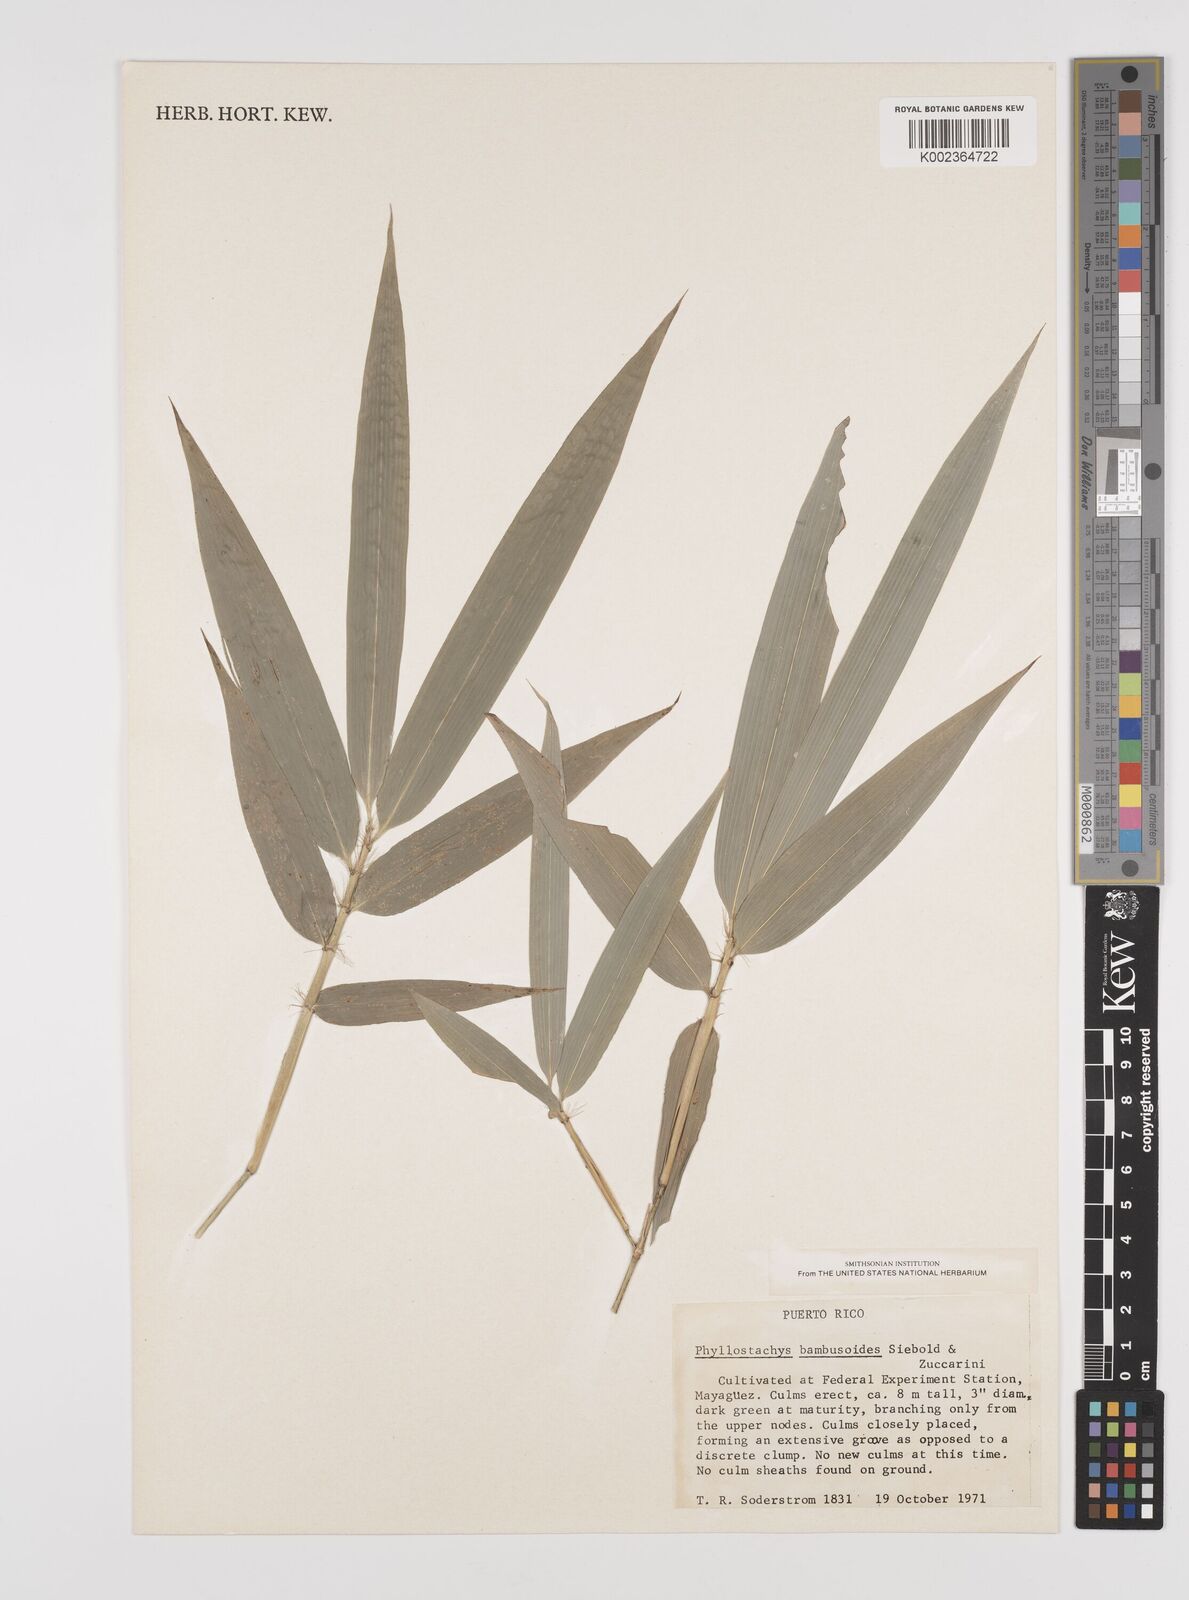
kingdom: Plantae
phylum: Tracheophyta
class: Liliopsida
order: Poales
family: Poaceae
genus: Phyllostachys
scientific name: Phyllostachys reticulata
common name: Bamboo
